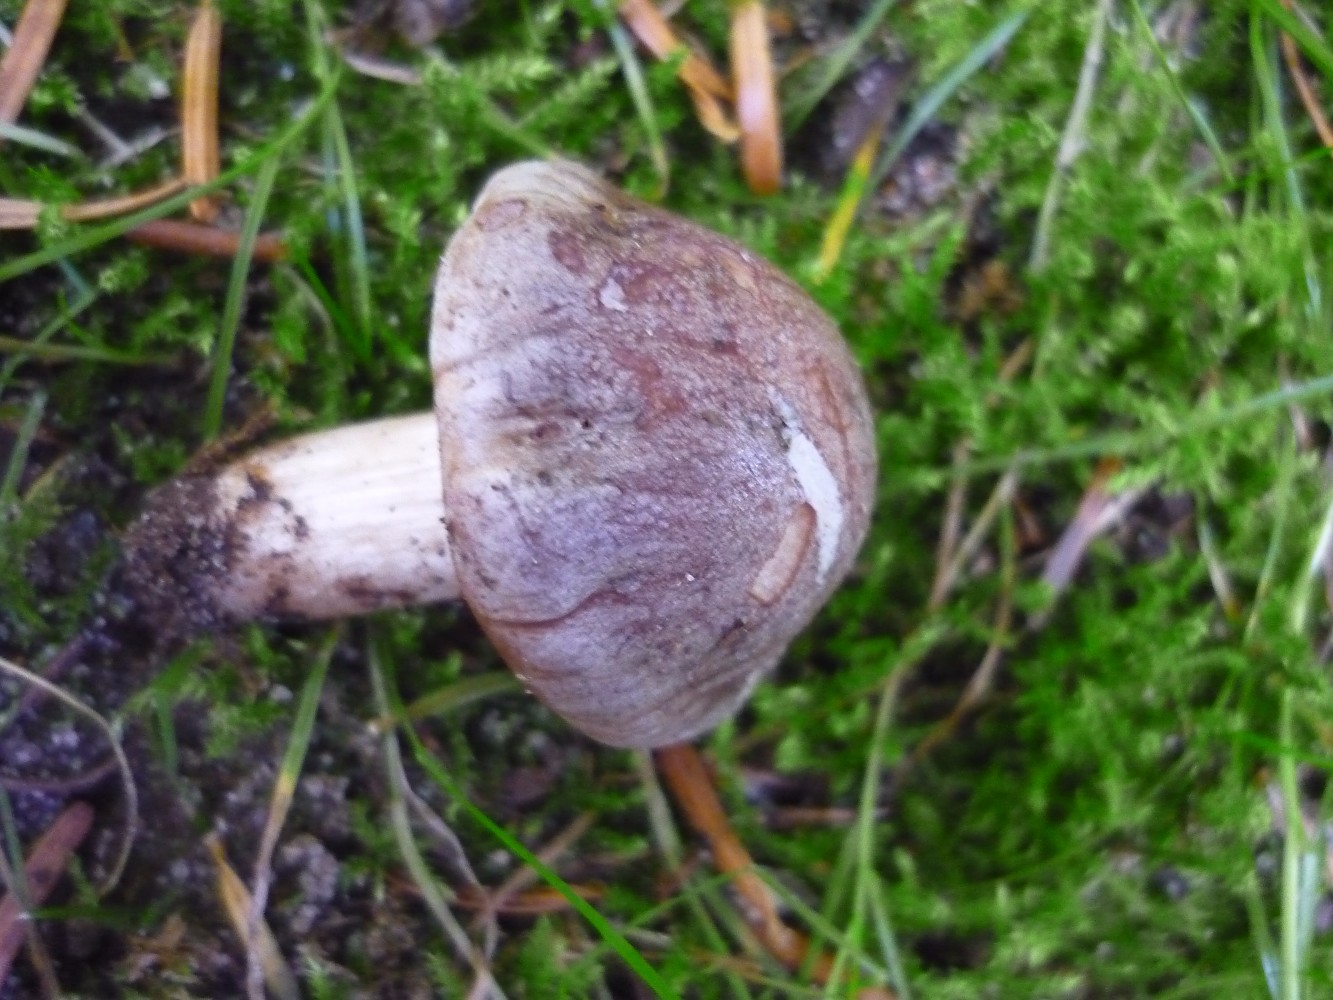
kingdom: Fungi
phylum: Basidiomycota
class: Agaricomycetes
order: Agaricales
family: Hymenogastraceae
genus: Hebeloma
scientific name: Hebeloma theobrominum
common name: rødbrun tåreblad
